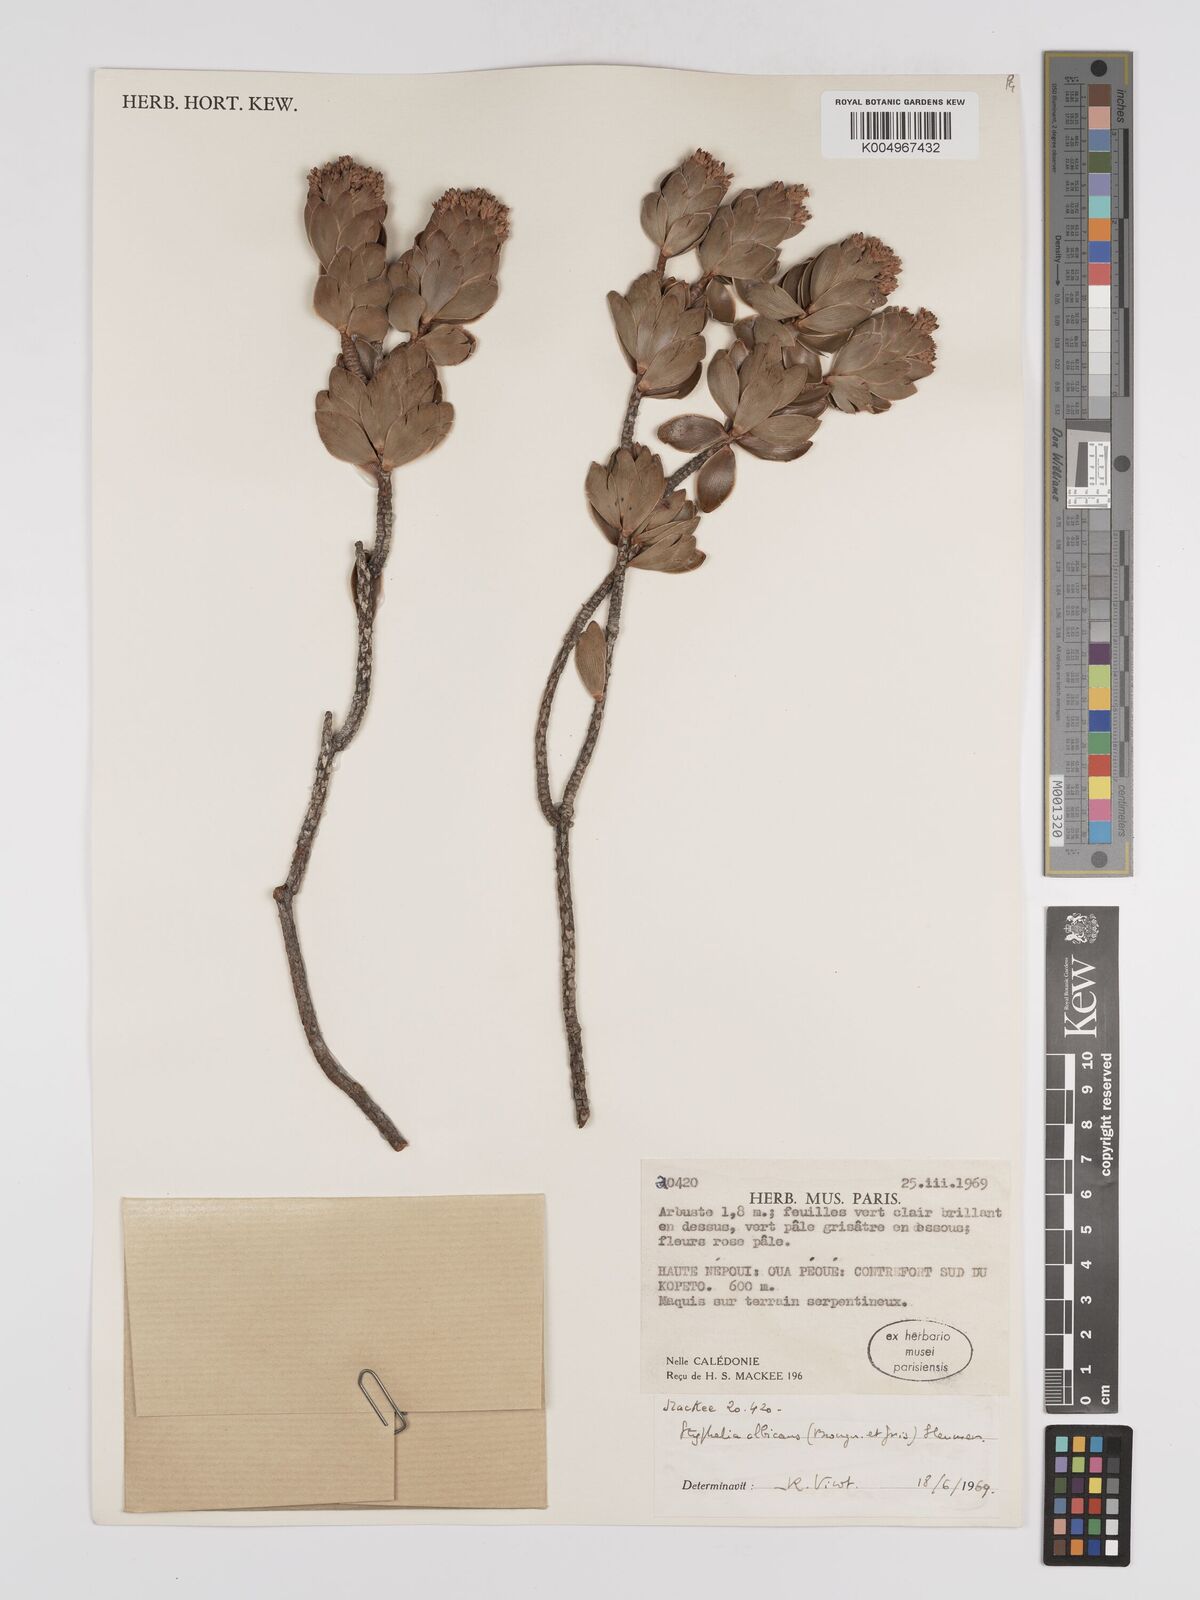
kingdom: Plantae
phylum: Tracheophyta
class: Magnoliopsida
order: Ericales
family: Ericaceae
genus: Cyathopsis
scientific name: Cyathopsis albicans
